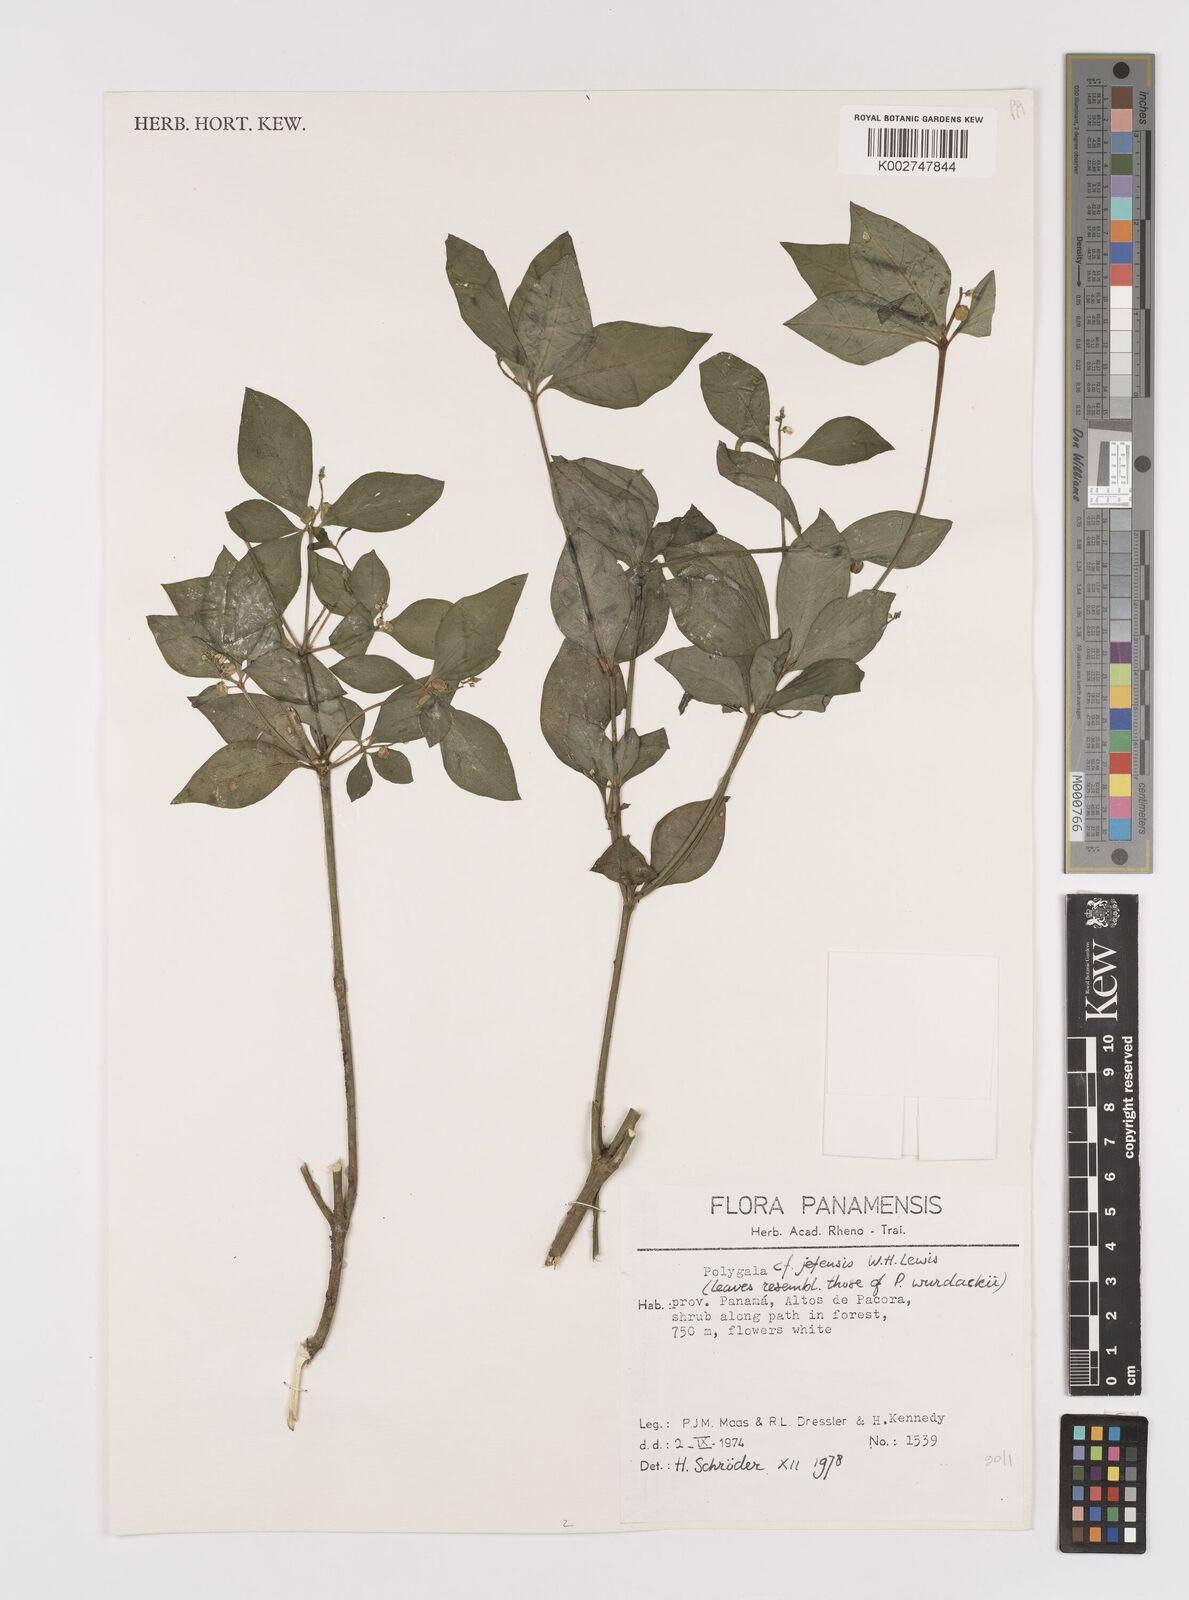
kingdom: Plantae
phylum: Tracheophyta
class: Magnoliopsida
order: Fabales
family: Polygalaceae
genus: Polygala
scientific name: Polygala jefensis
